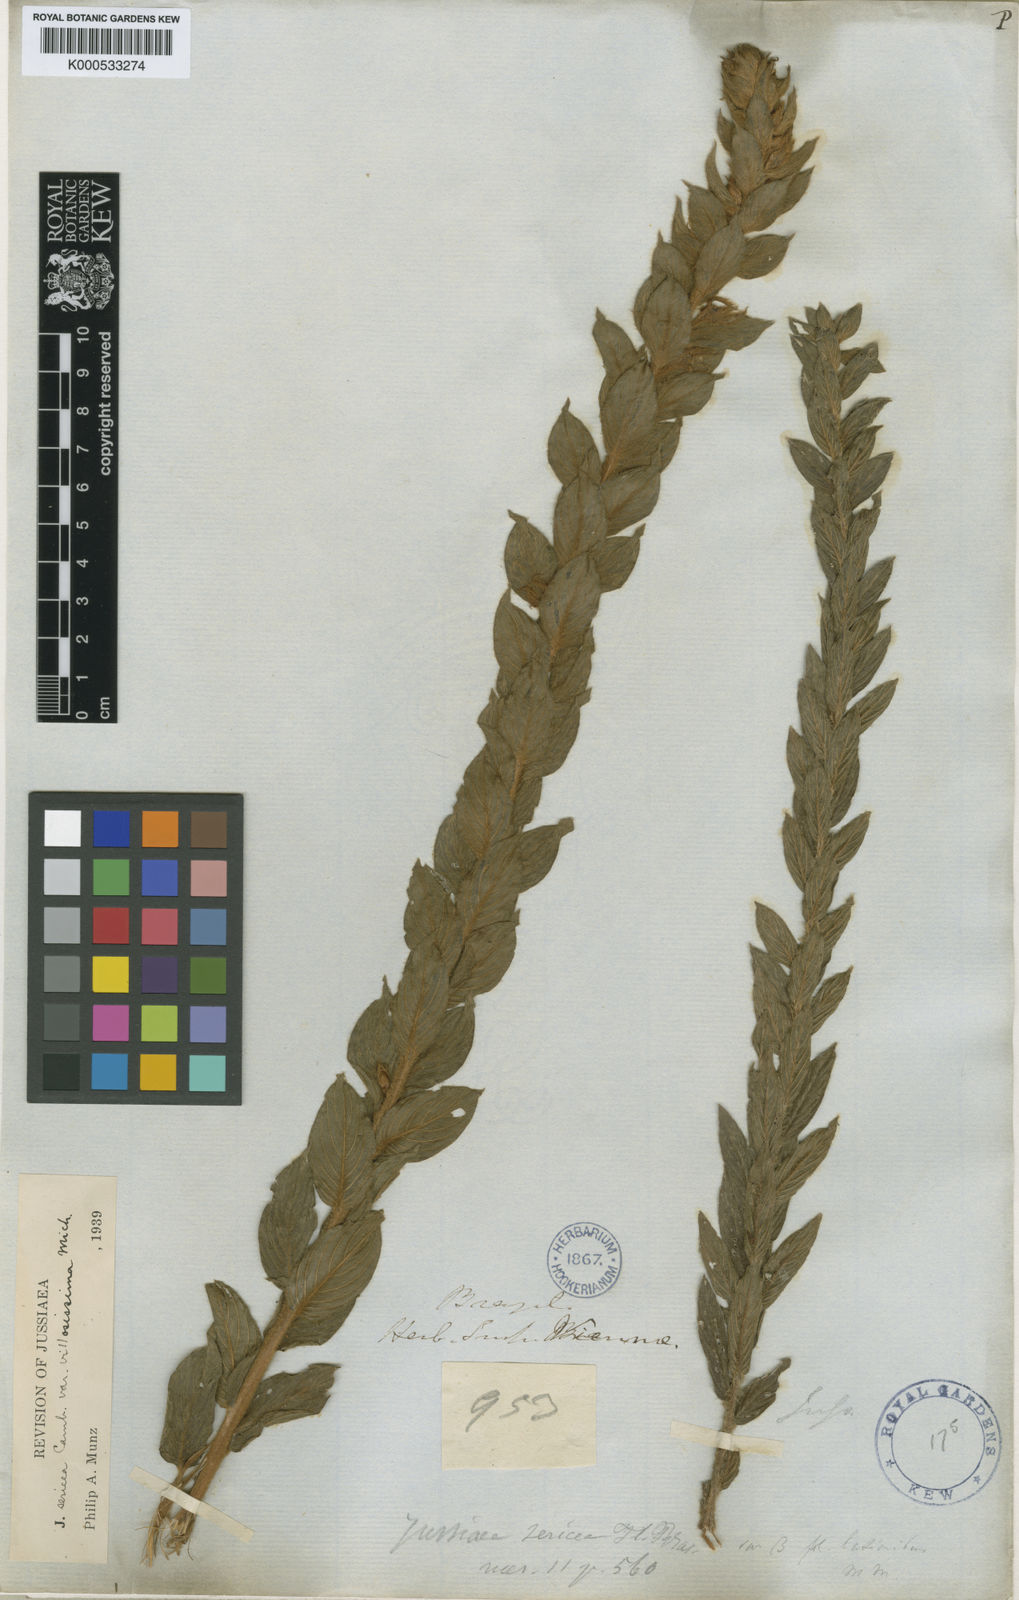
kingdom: Plantae
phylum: Tracheophyta
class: Magnoliopsida
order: Myrtales
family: Onagraceae
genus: Ludwigia
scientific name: Ludwigia hassleriana
